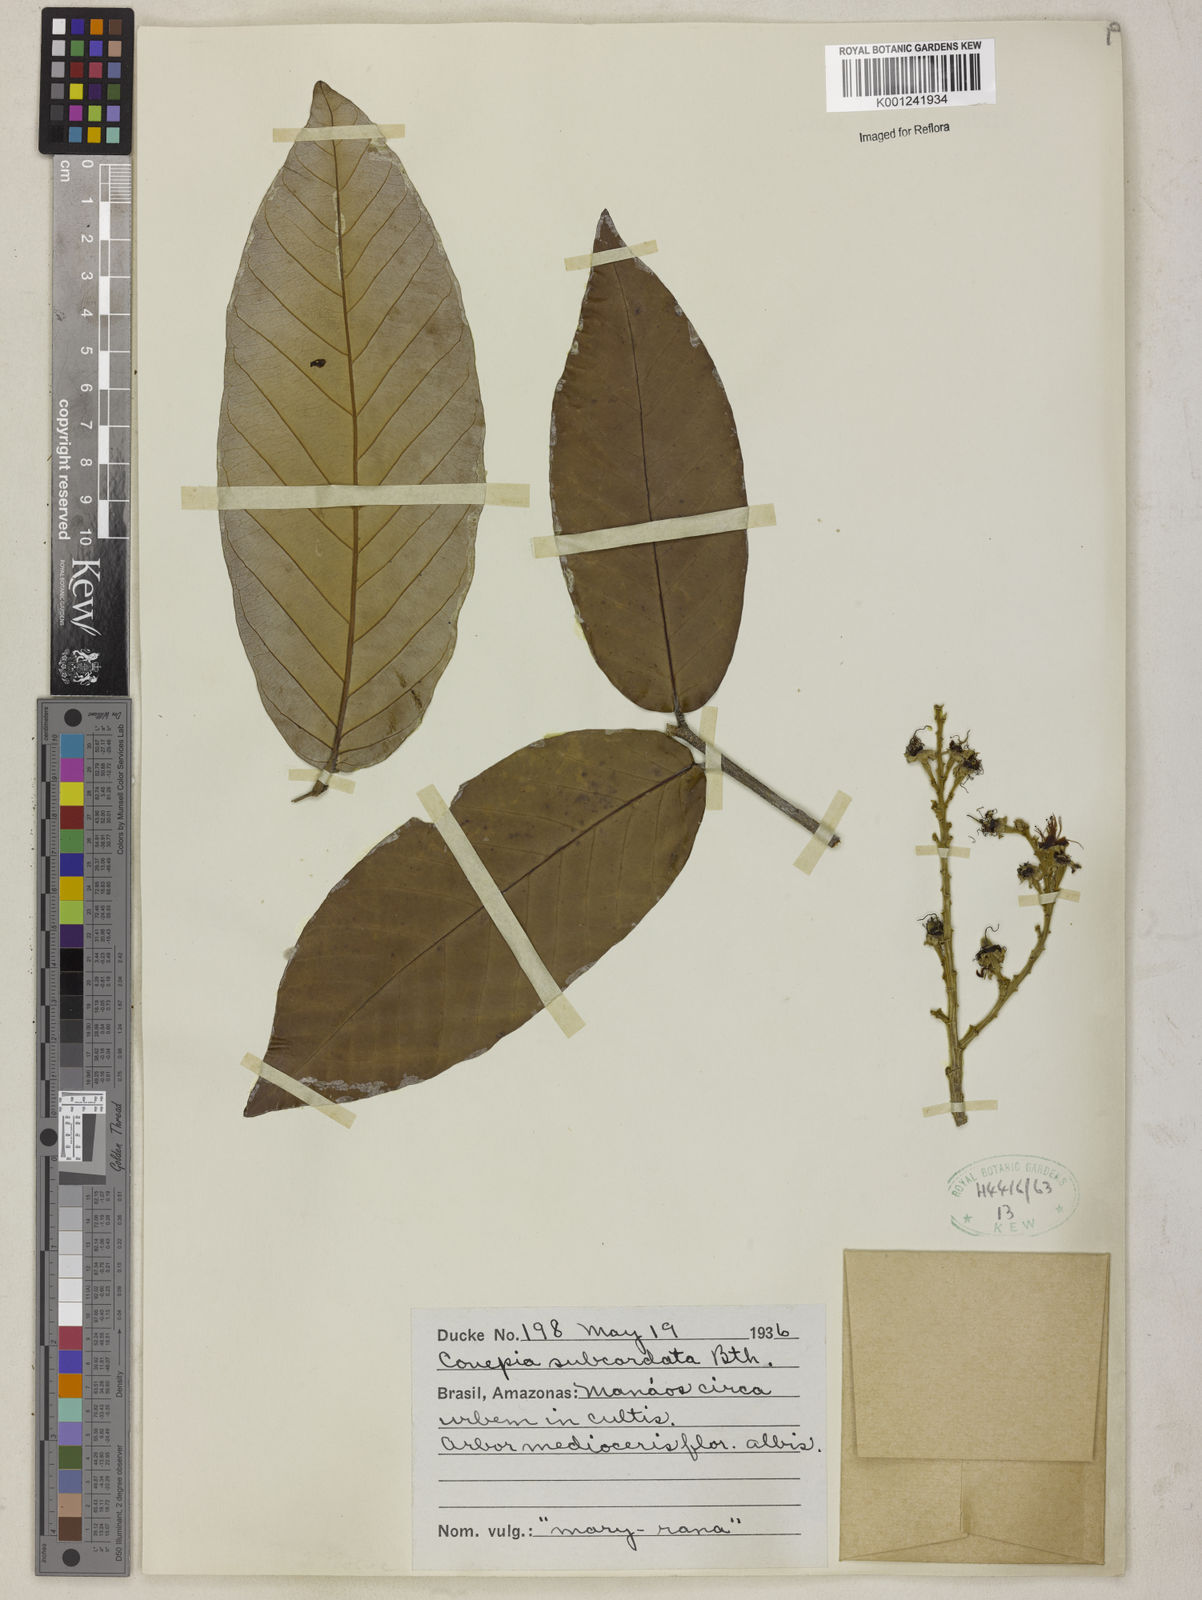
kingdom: Plantae
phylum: Tracheophyta
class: Magnoliopsida
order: Malpighiales
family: Chrysobalanaceae
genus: Couepia
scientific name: Couepia subcordata
